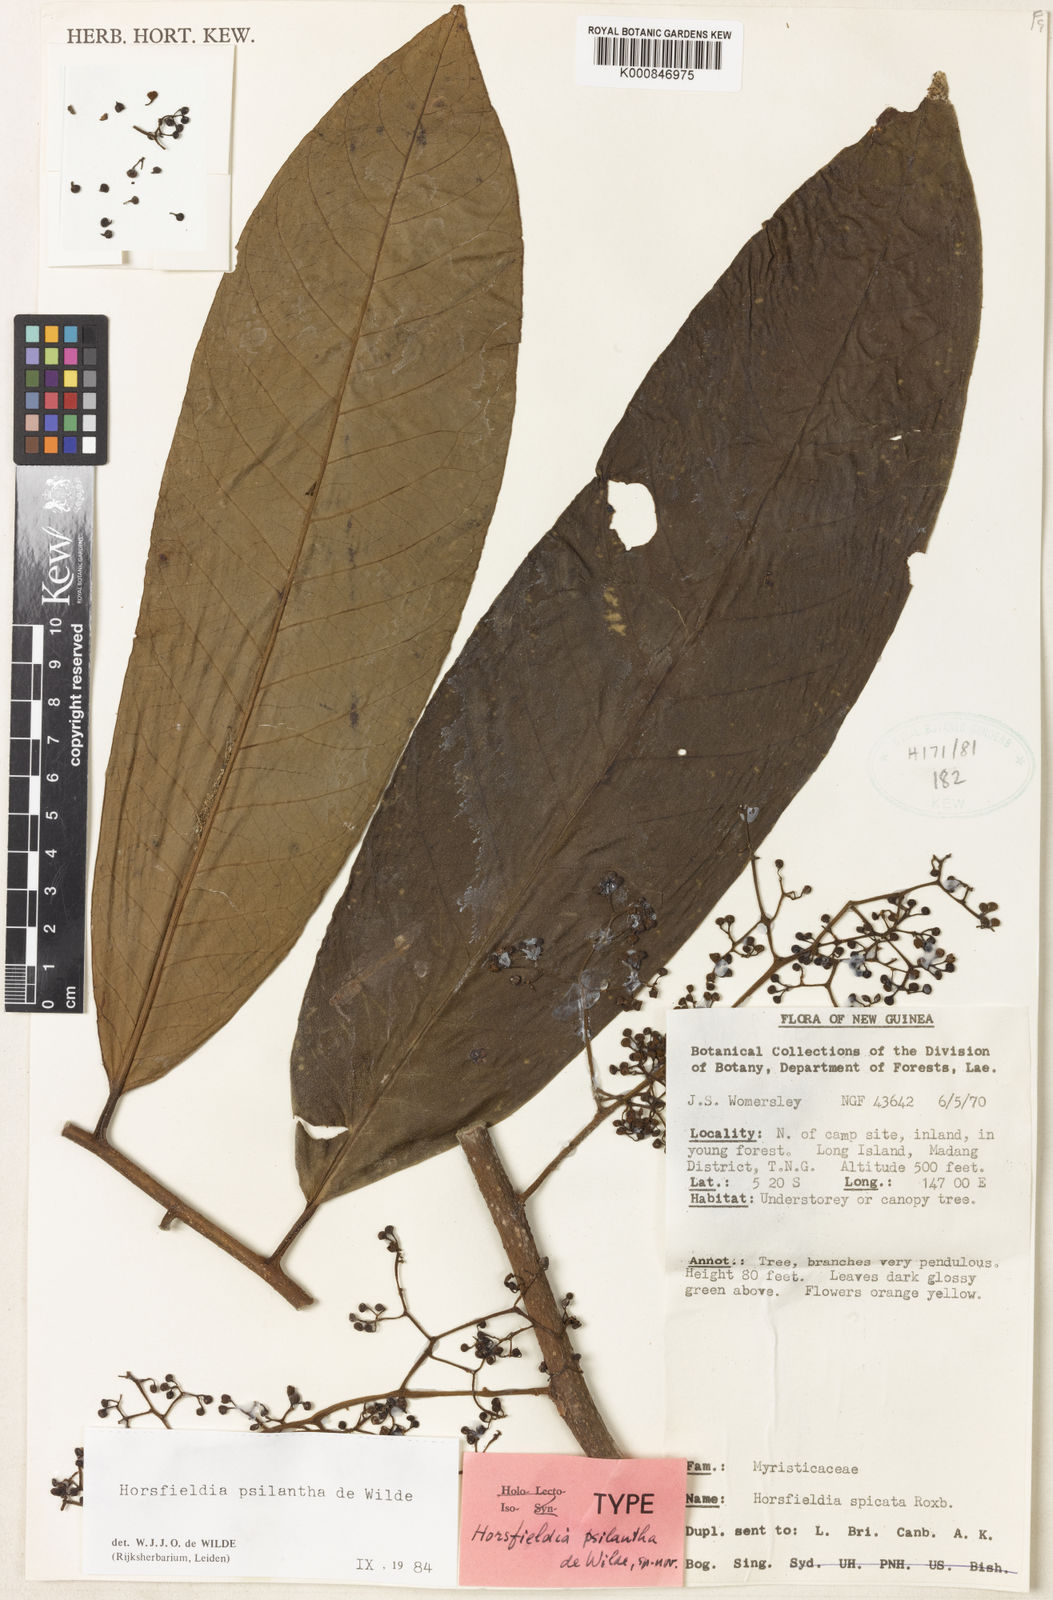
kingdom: Plantae
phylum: Tracheophyta
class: Magnoliopsida
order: Magnoliales
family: Myristicaceae
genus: Horsfieldia
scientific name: Horsfieldia psilantha
